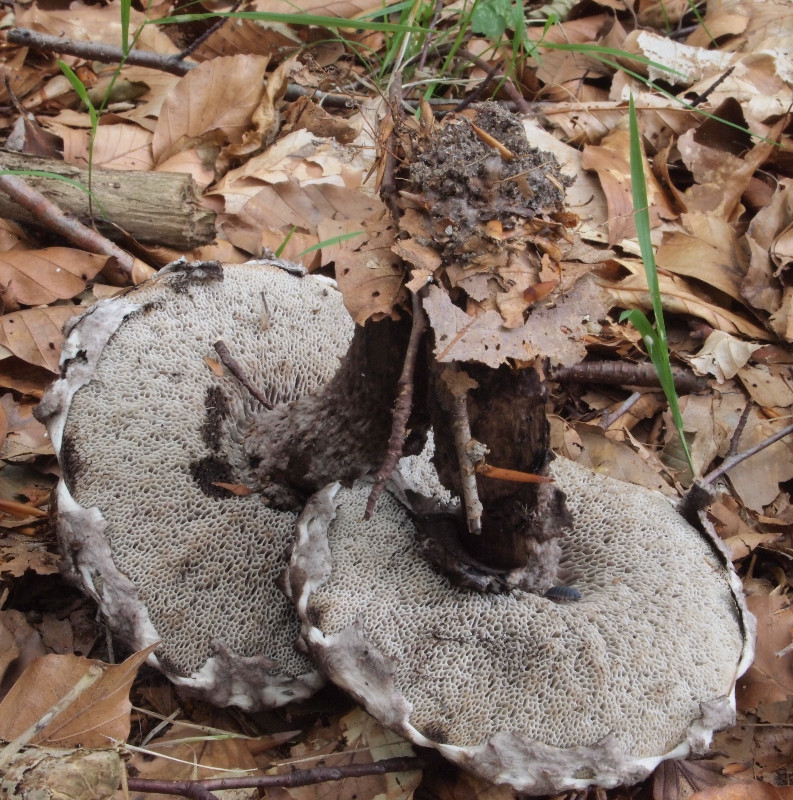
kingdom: Fungi
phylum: Basidiomycota
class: Agaricomycetes
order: Boletales
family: Boletaceae
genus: Strobilomyces
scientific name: Strobilomyces strobilaceus
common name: koglerørhat
